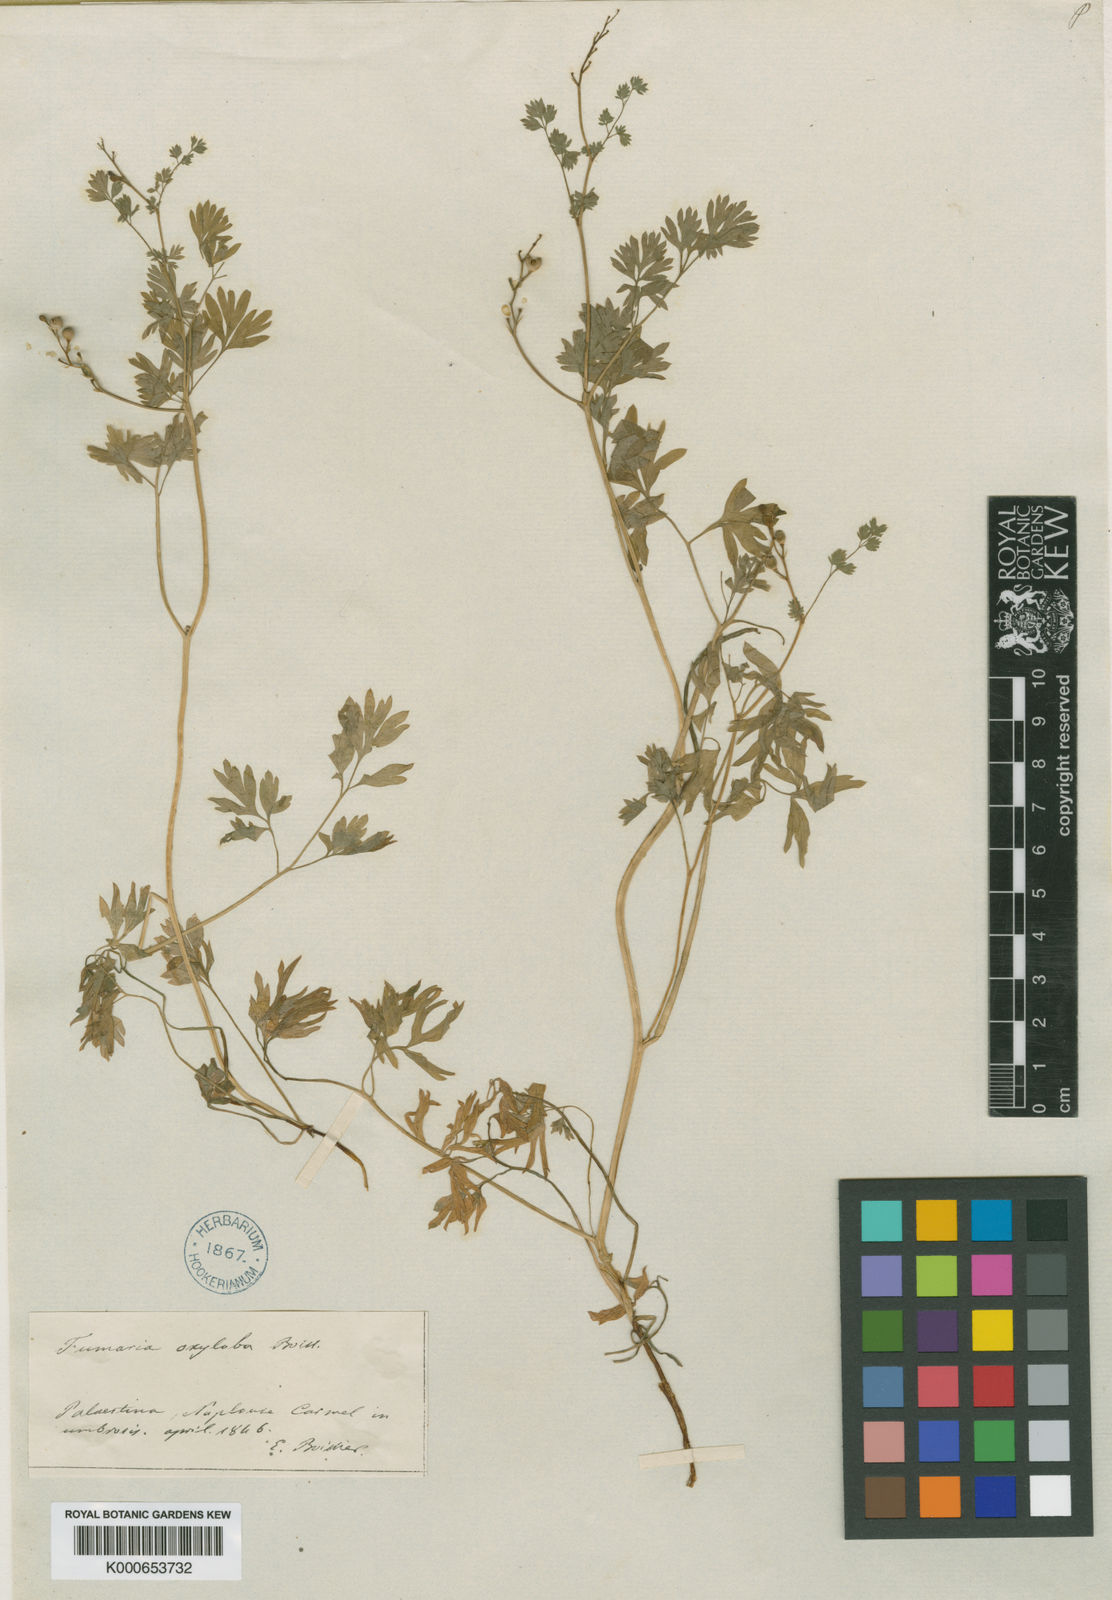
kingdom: Plantae
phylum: Tracheophyta
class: Magnoliopsida
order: Ranunculales
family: Papaveraceae
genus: Fumaria
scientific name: Fumaria macrocarpa
